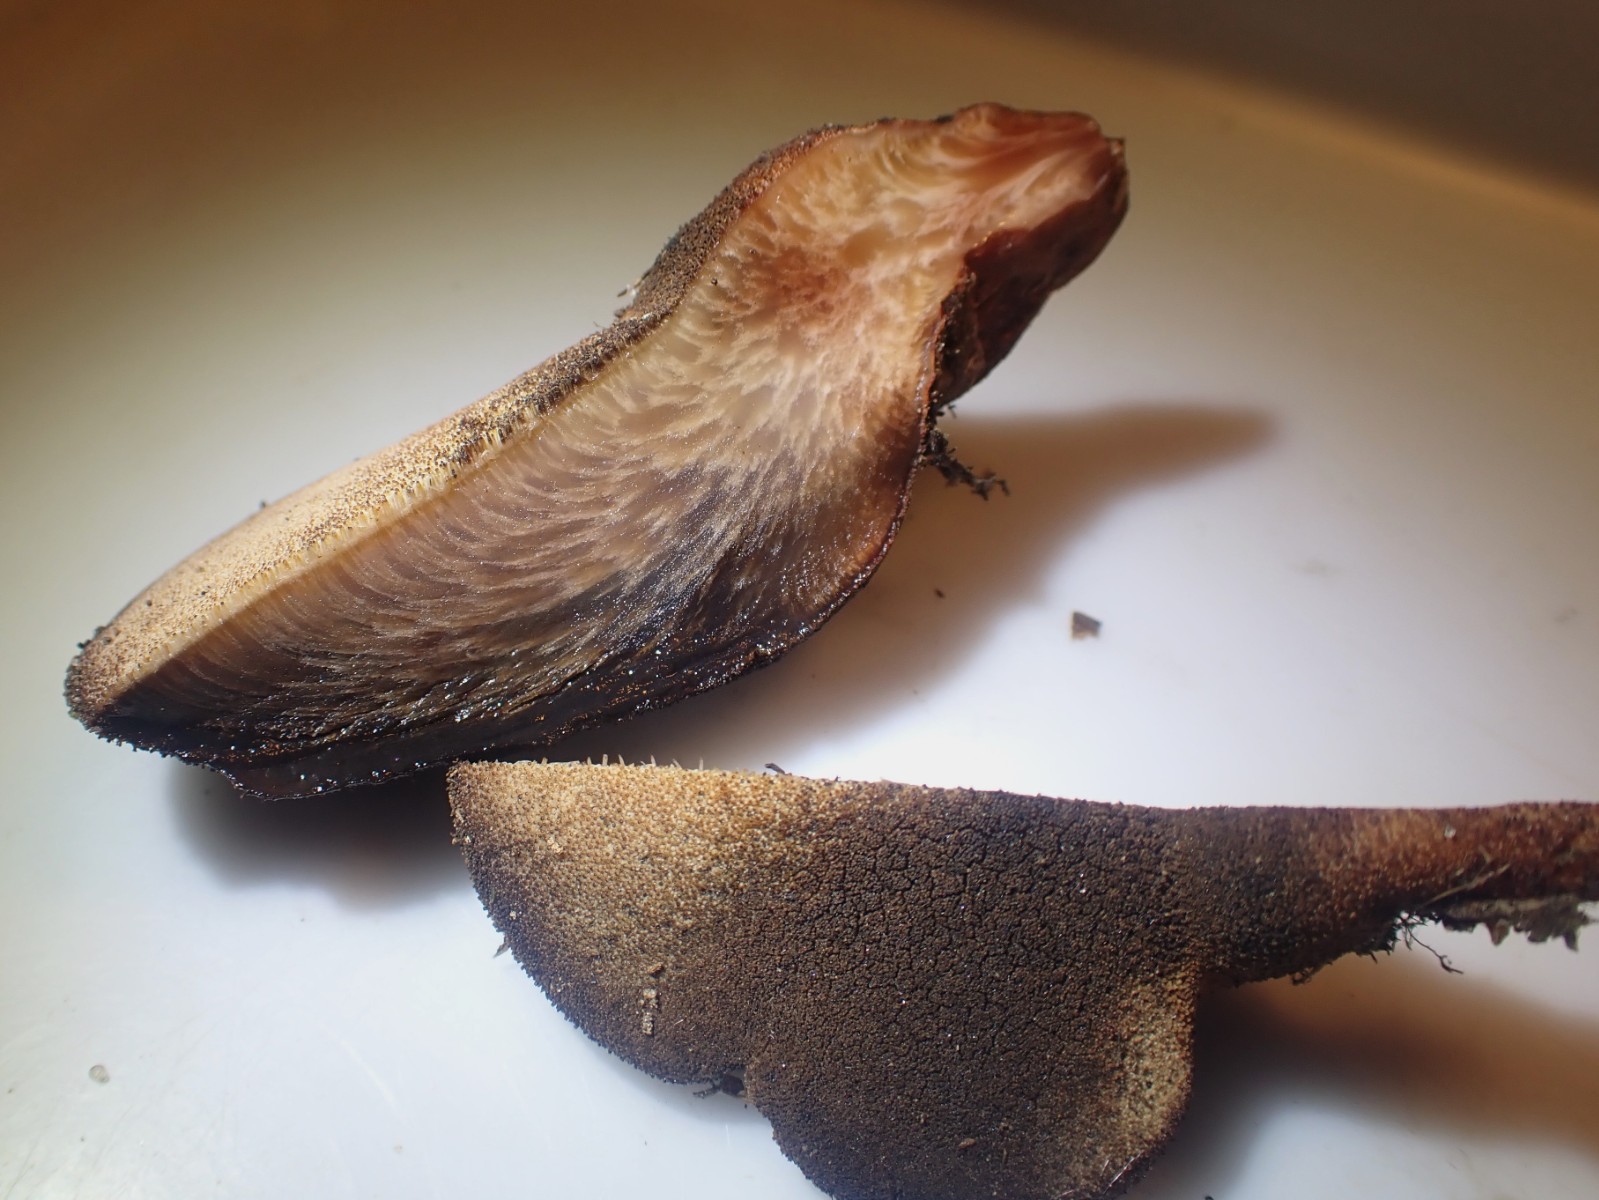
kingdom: Fungi
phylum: Basidiomycota
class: Agaricomycetes
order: Agaricales
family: Fistulinaceae
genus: Fistulina
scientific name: Fistulina hepatica
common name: oksetunge
